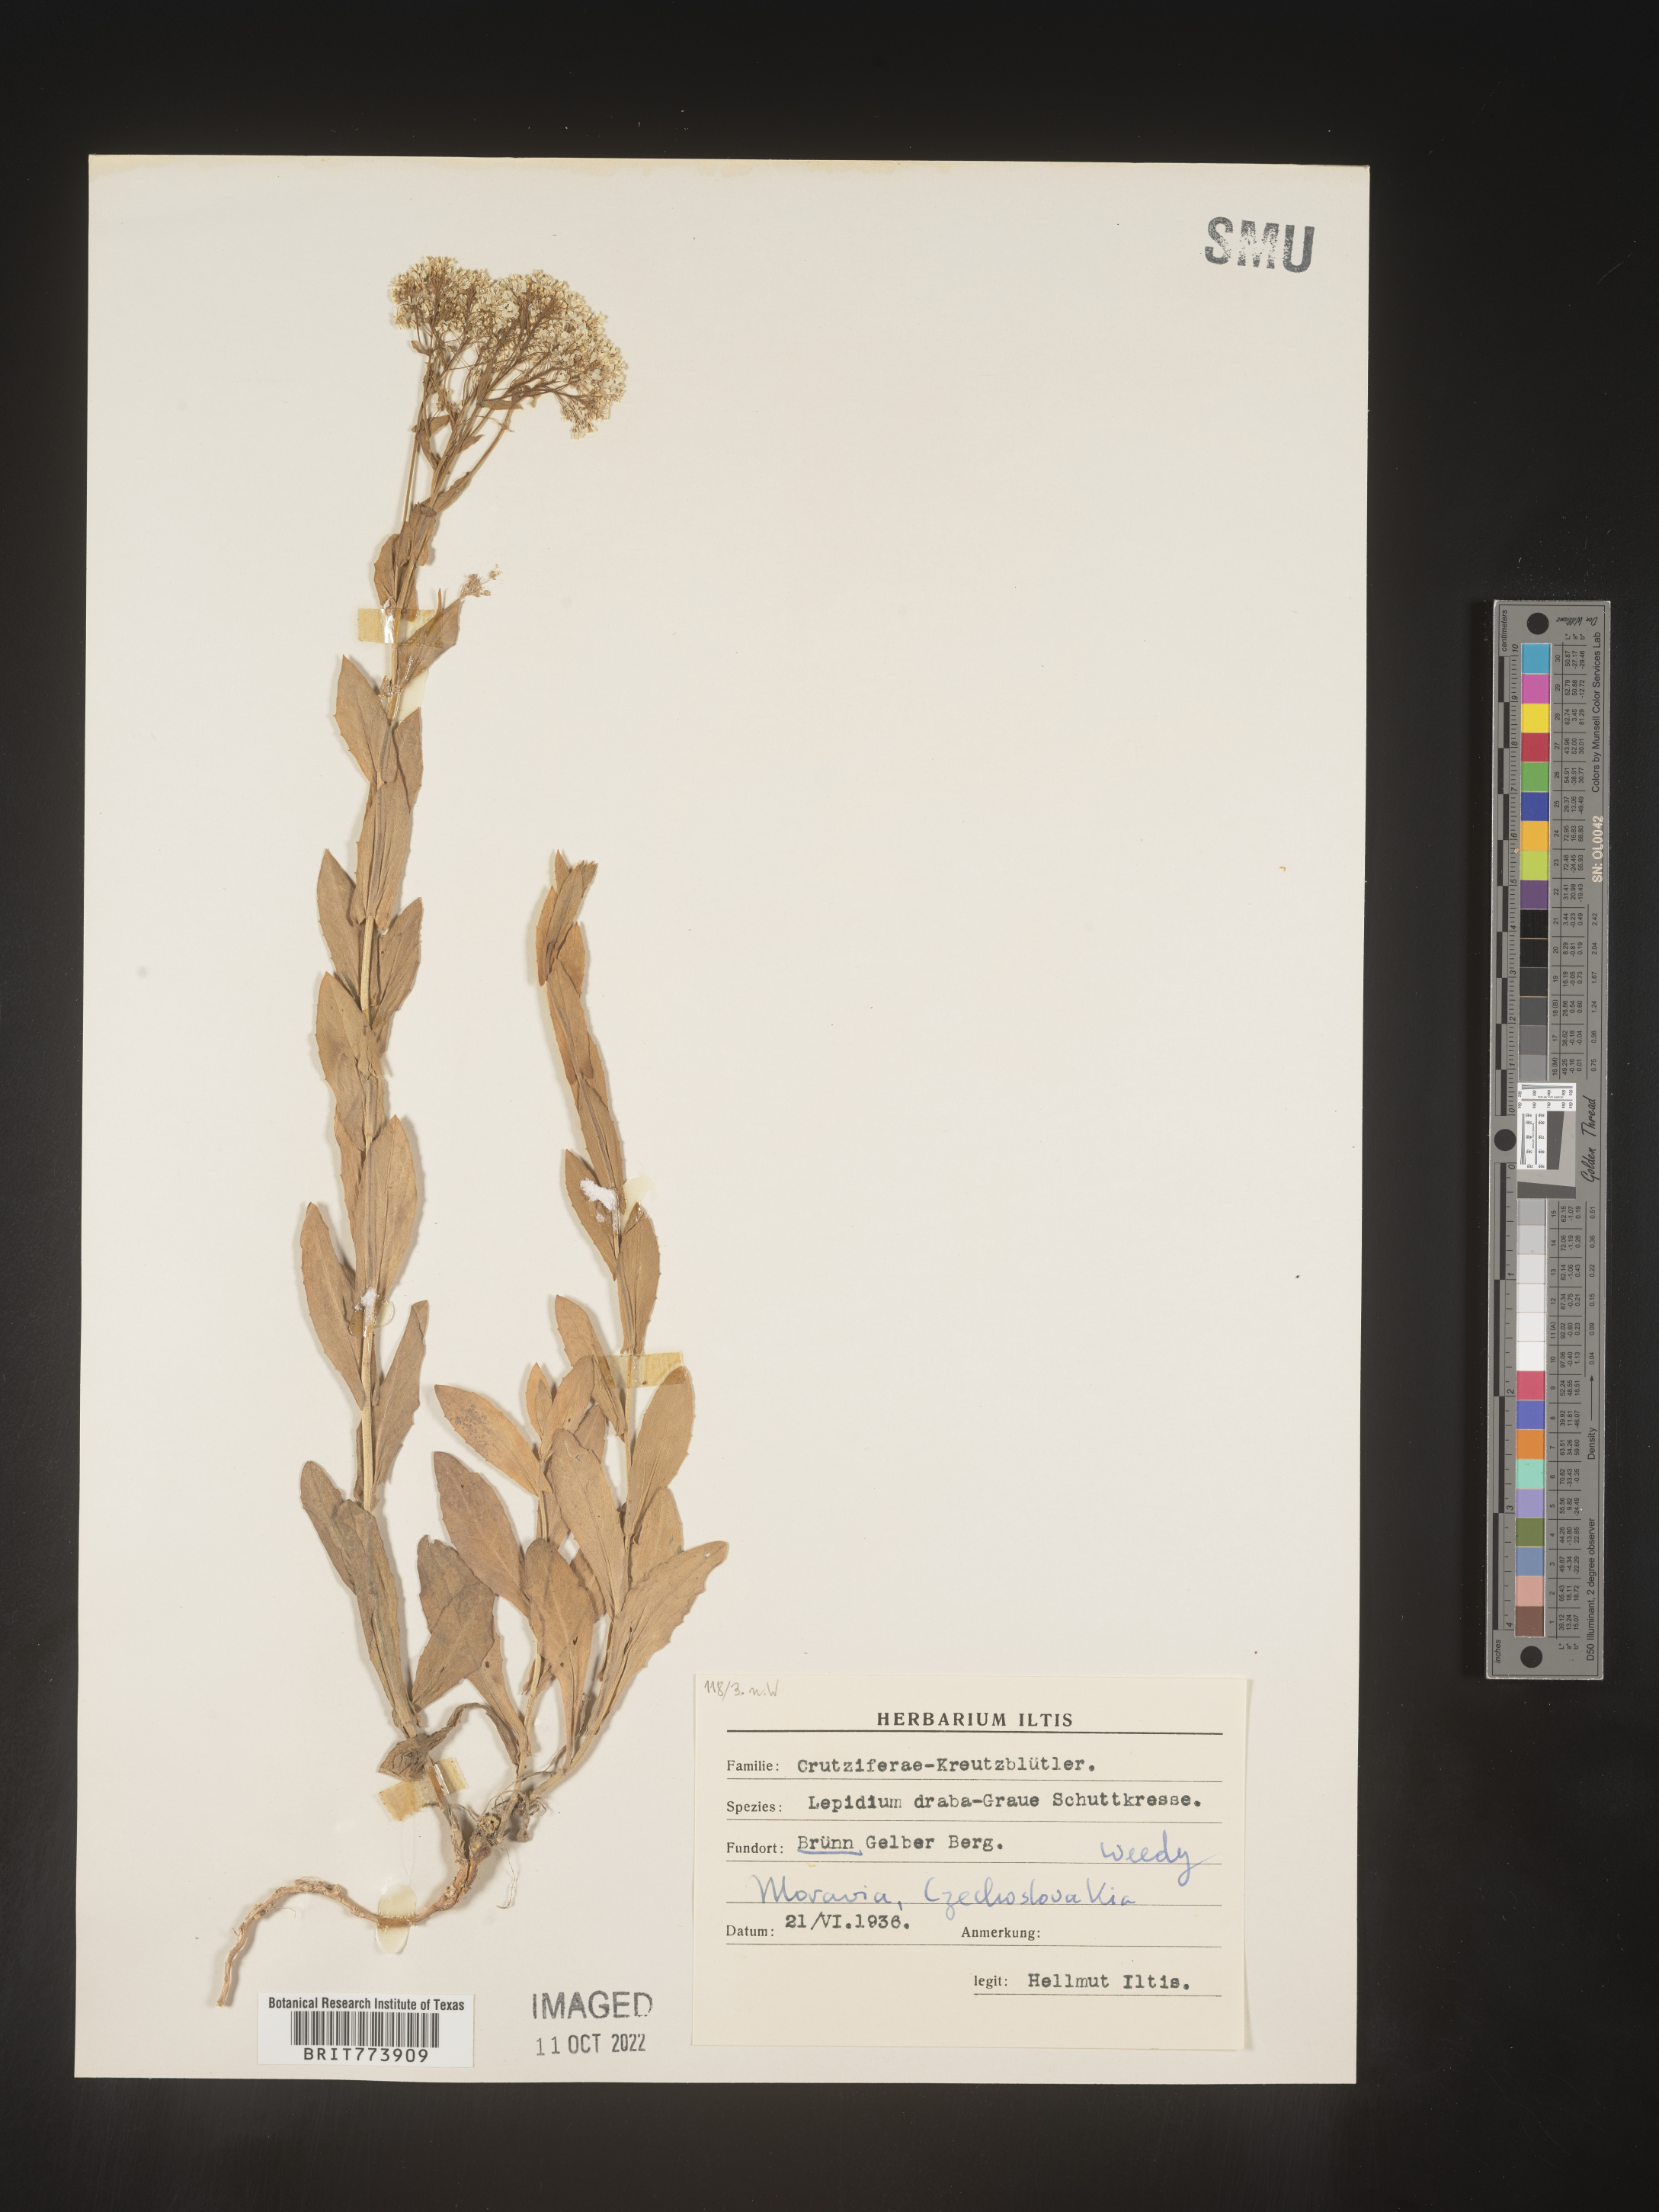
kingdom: Plantae
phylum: Tracheophyta
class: Magnoliopsida
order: Brassicales
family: Brassicaceae
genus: Lepidium
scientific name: Lepidium
